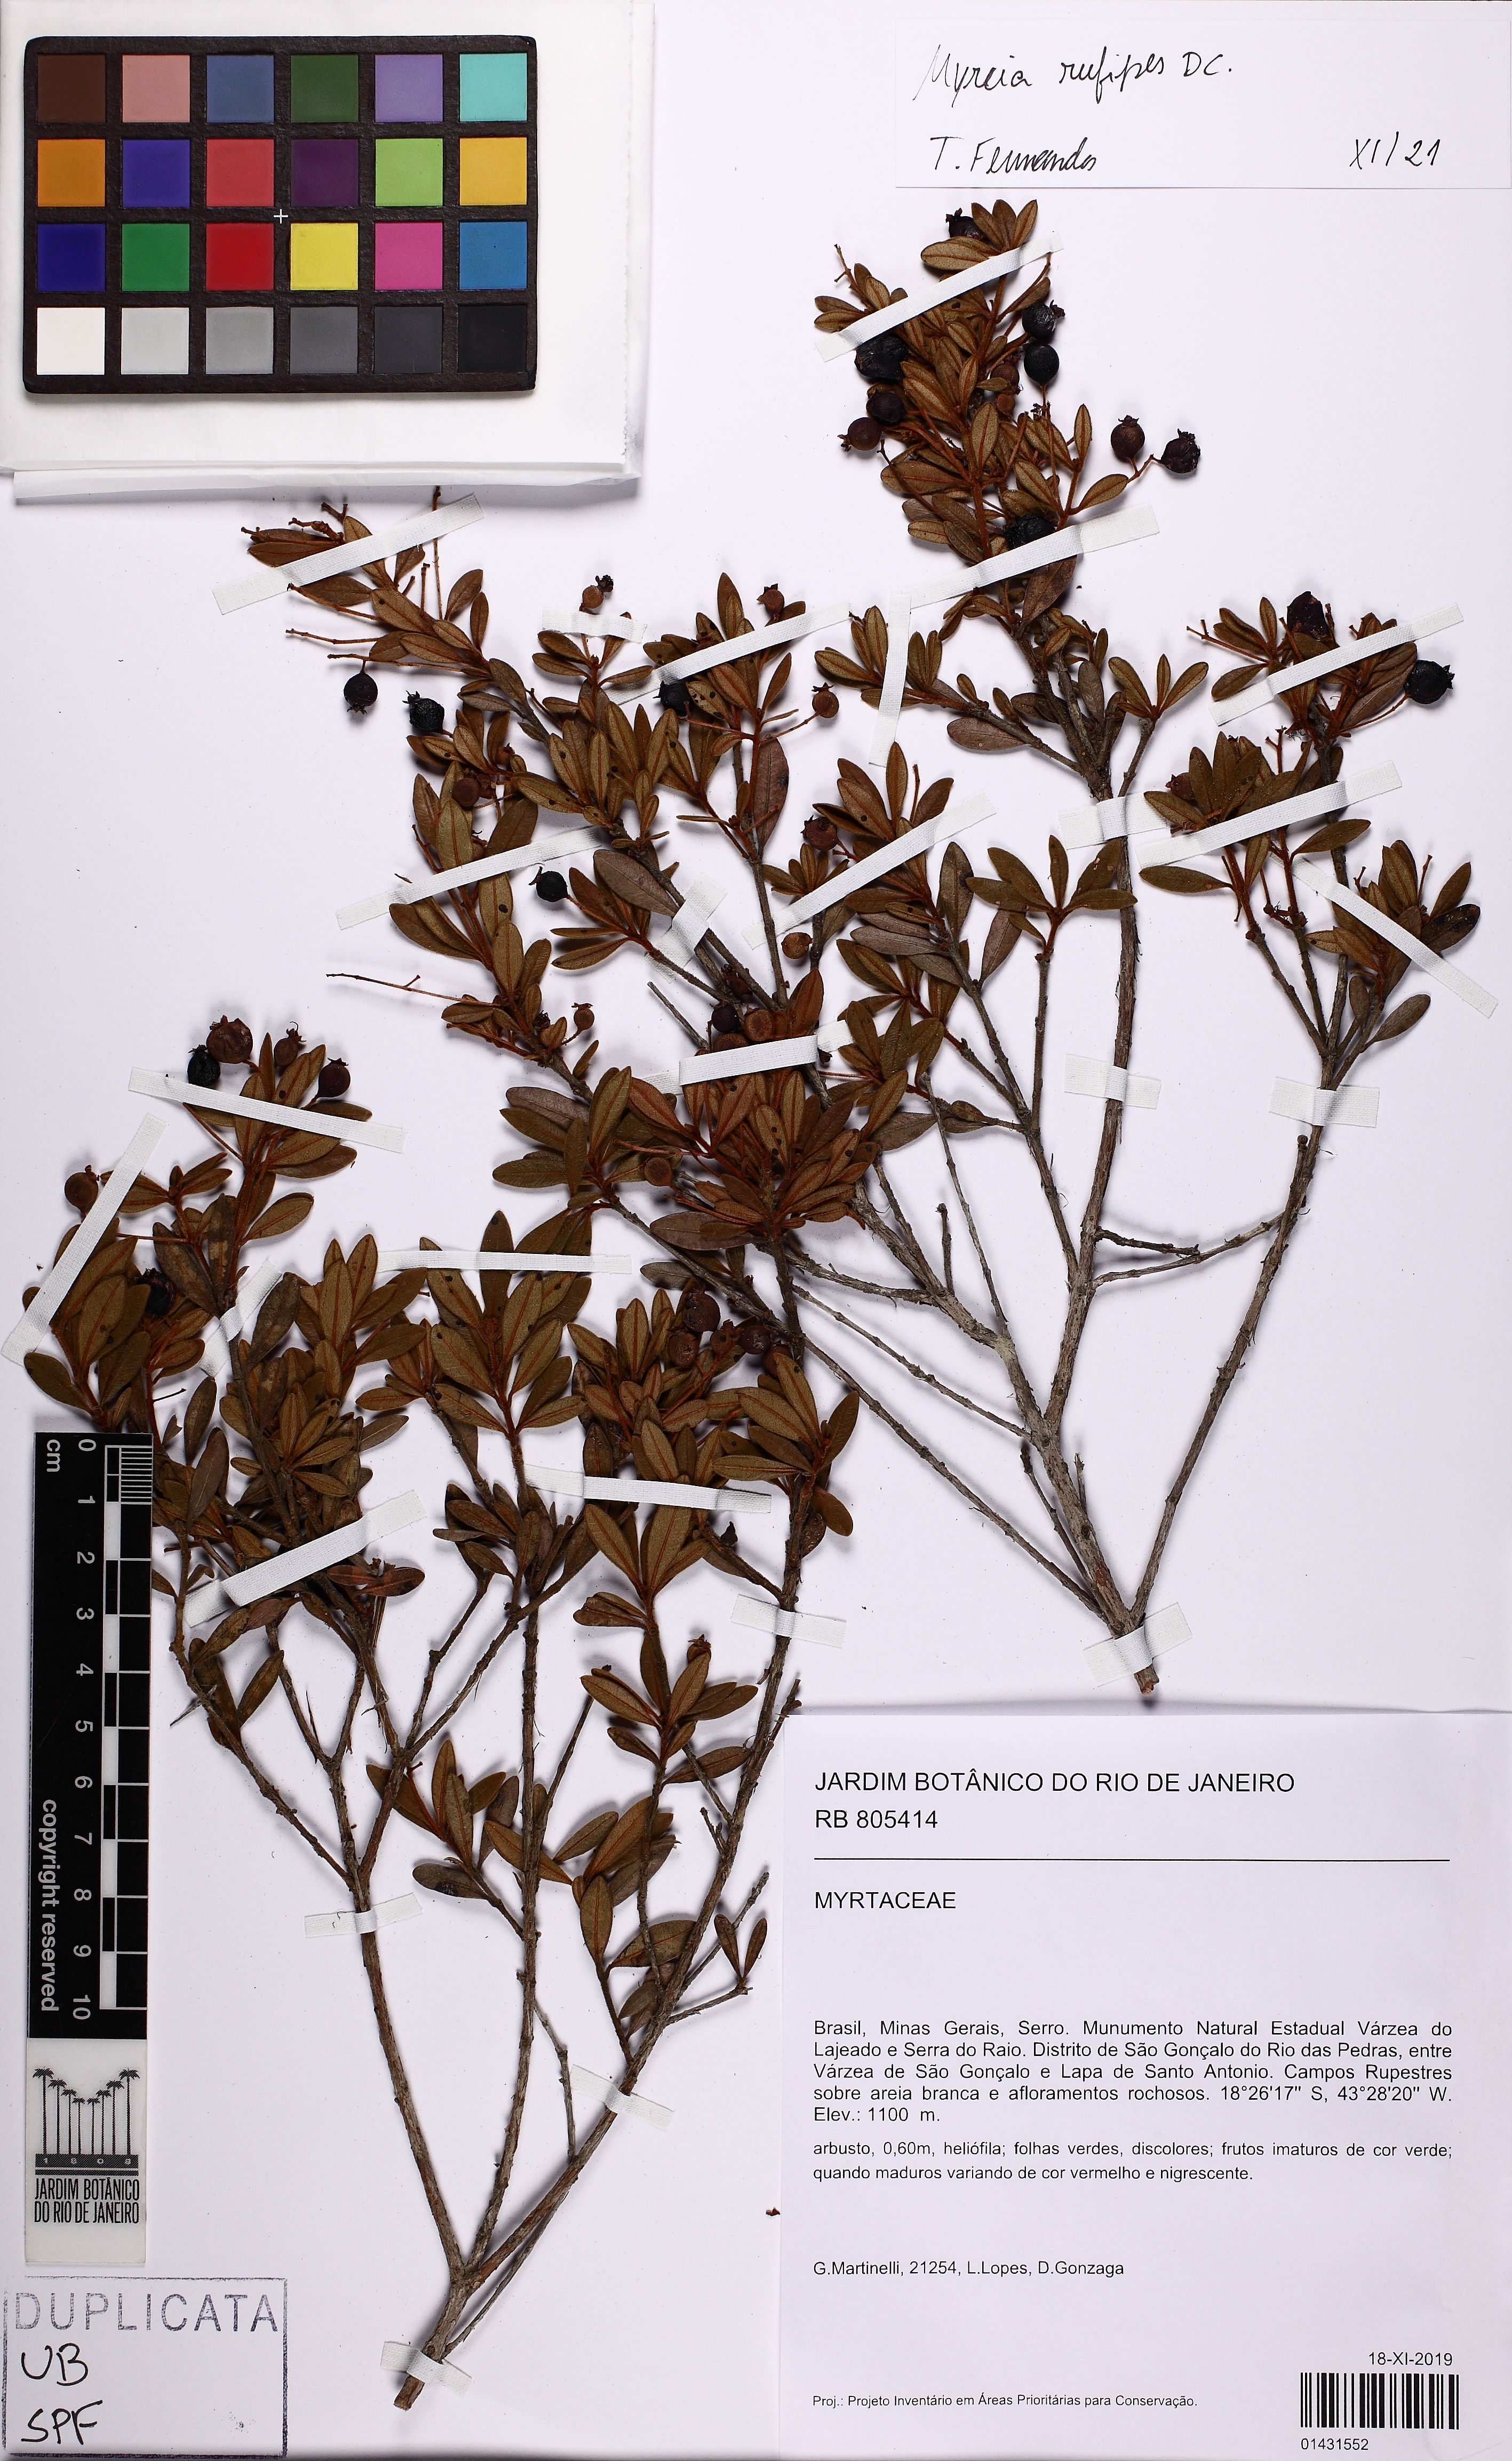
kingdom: Plantae
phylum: Tracheophyta
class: Magnoliopsida
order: Myrtales
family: Myrtaceae
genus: Myrcia
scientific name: Myrcia rufipes
